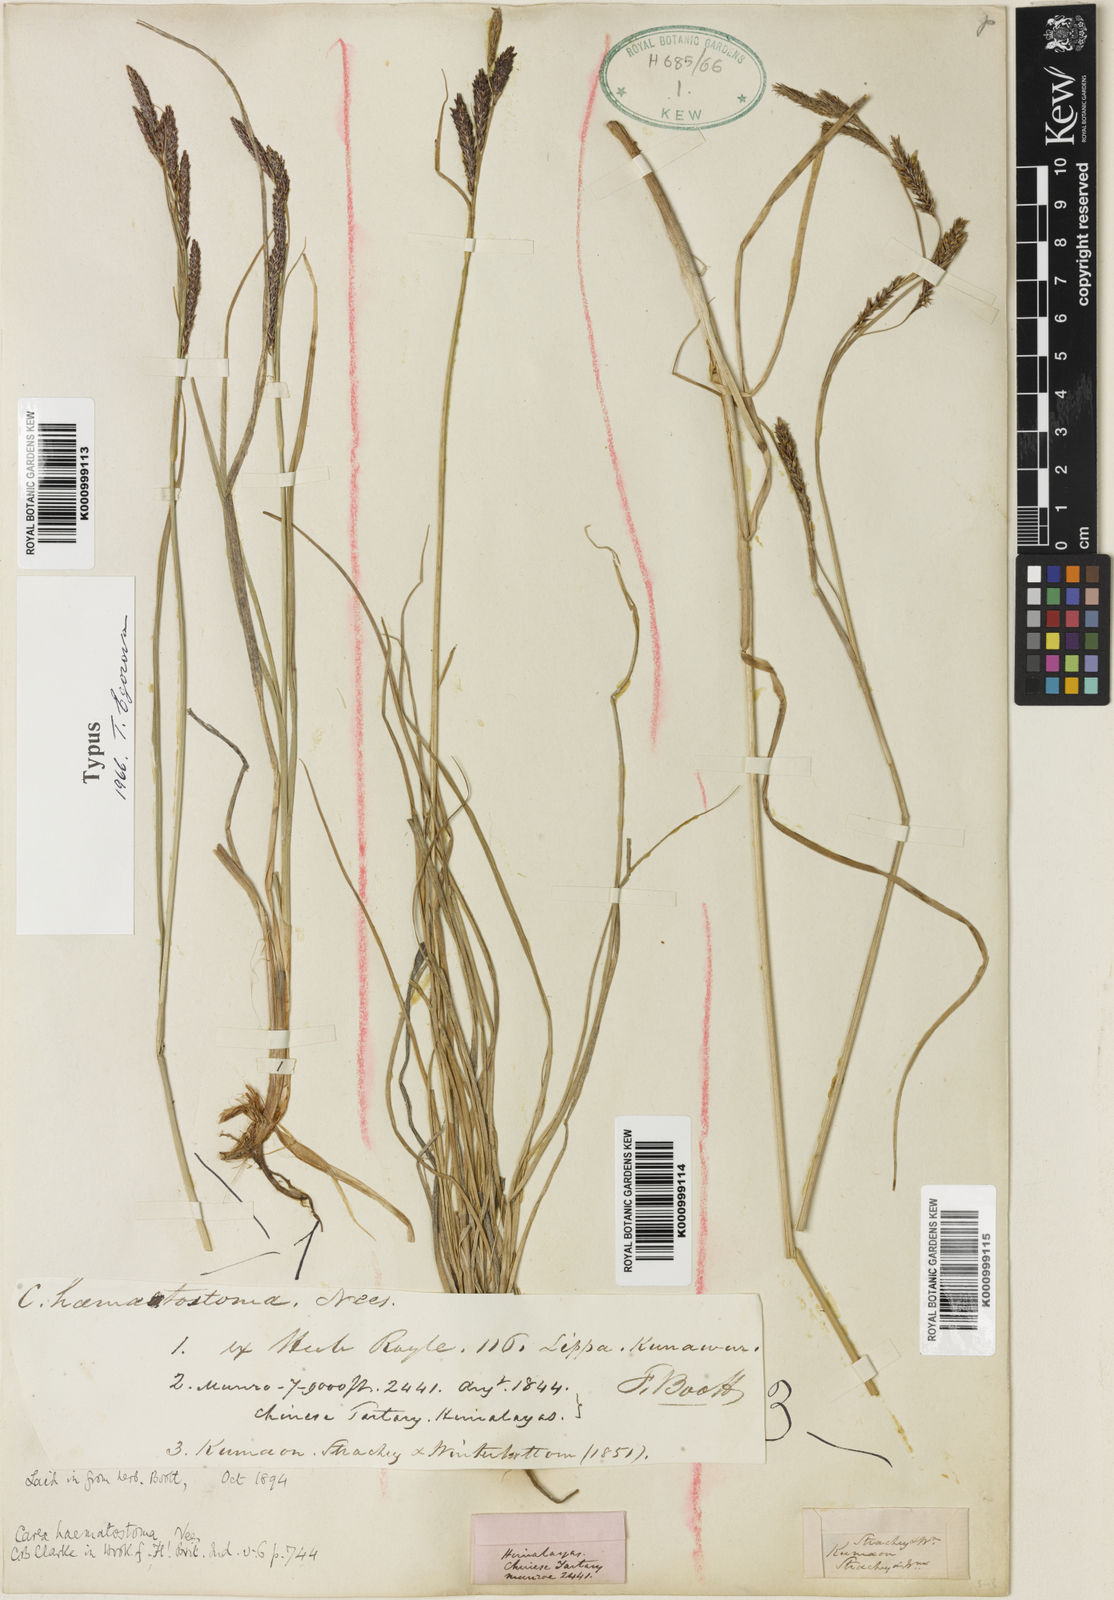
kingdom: Plantae
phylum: Tracheophyta
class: Liliopsida
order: Poales
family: Cyperaceae
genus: Carex
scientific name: Carex haematostoma
